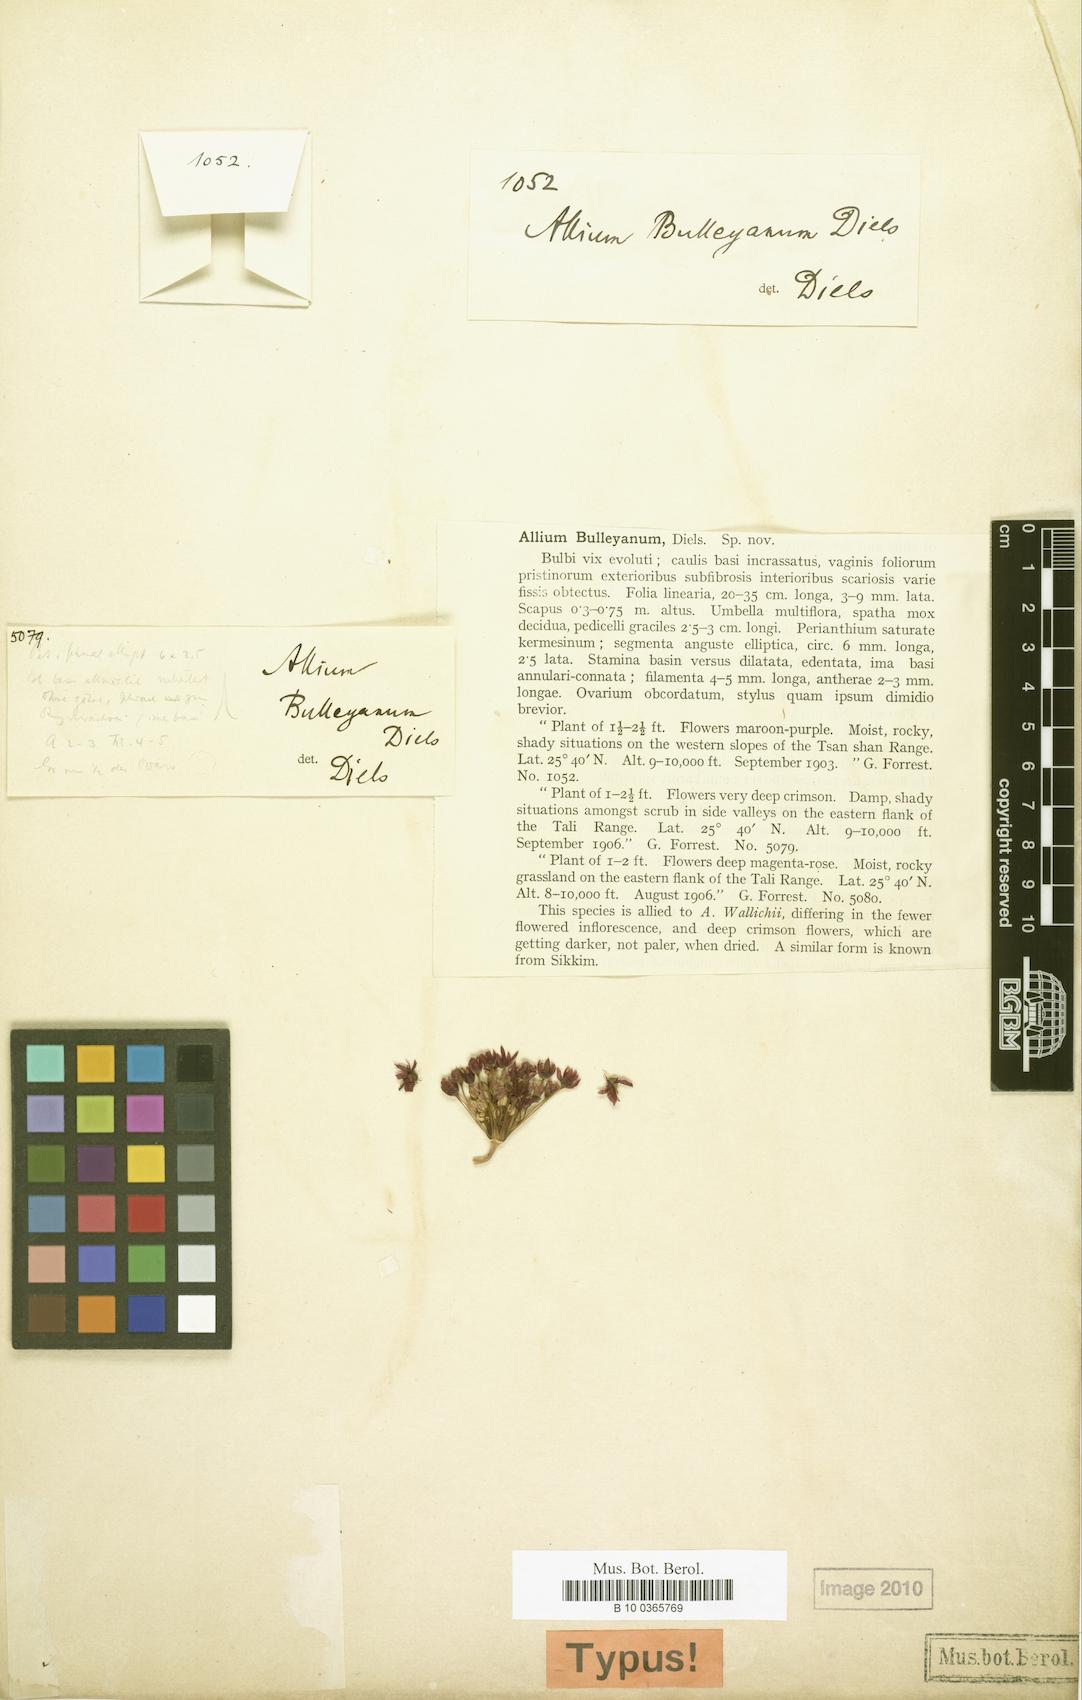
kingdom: Plantae
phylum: Tracheophyta
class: Liliopsida
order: Asparagales
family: Amaryllidaceae
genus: Allium
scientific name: Allium wallichii
